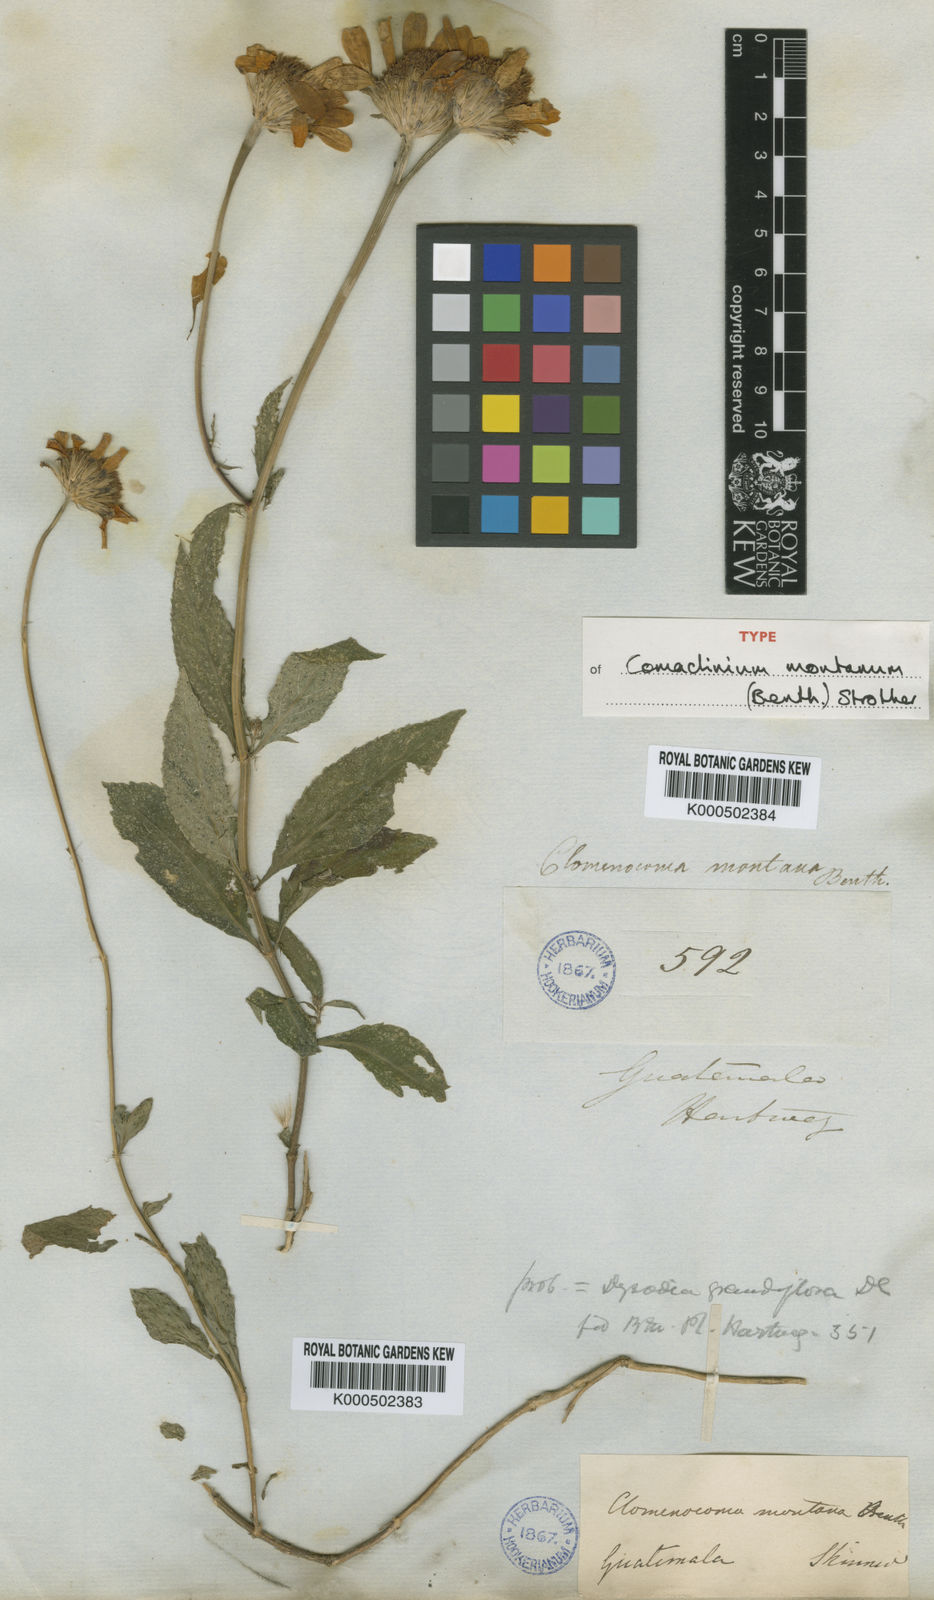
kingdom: Plantae
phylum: Tracheophyta
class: Magnoliopsida
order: Asterales
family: Asteraceae
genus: Comaclinium
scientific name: Comaclinium montanum
